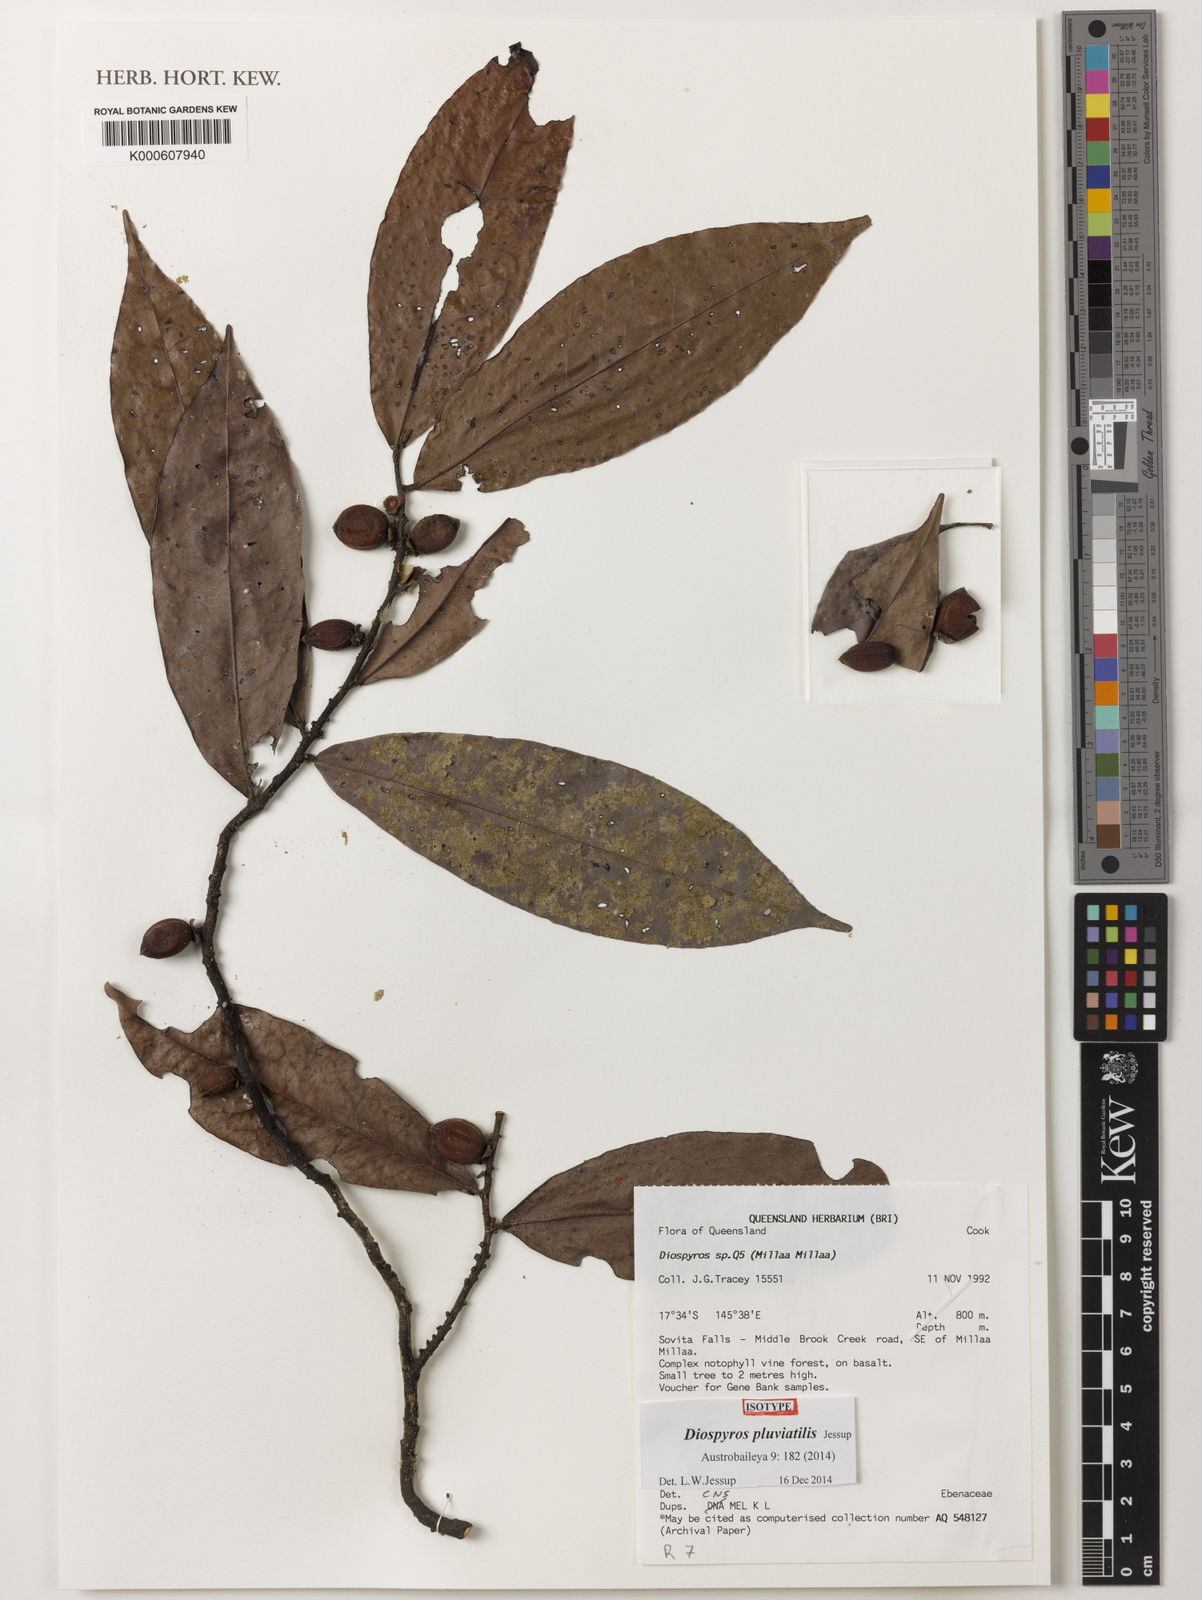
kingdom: Plantae
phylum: Tracheophyta
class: Magnoliopsida
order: Ericales
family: Ebenaceae
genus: Diospyros
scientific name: Diospyros pluviatilis
